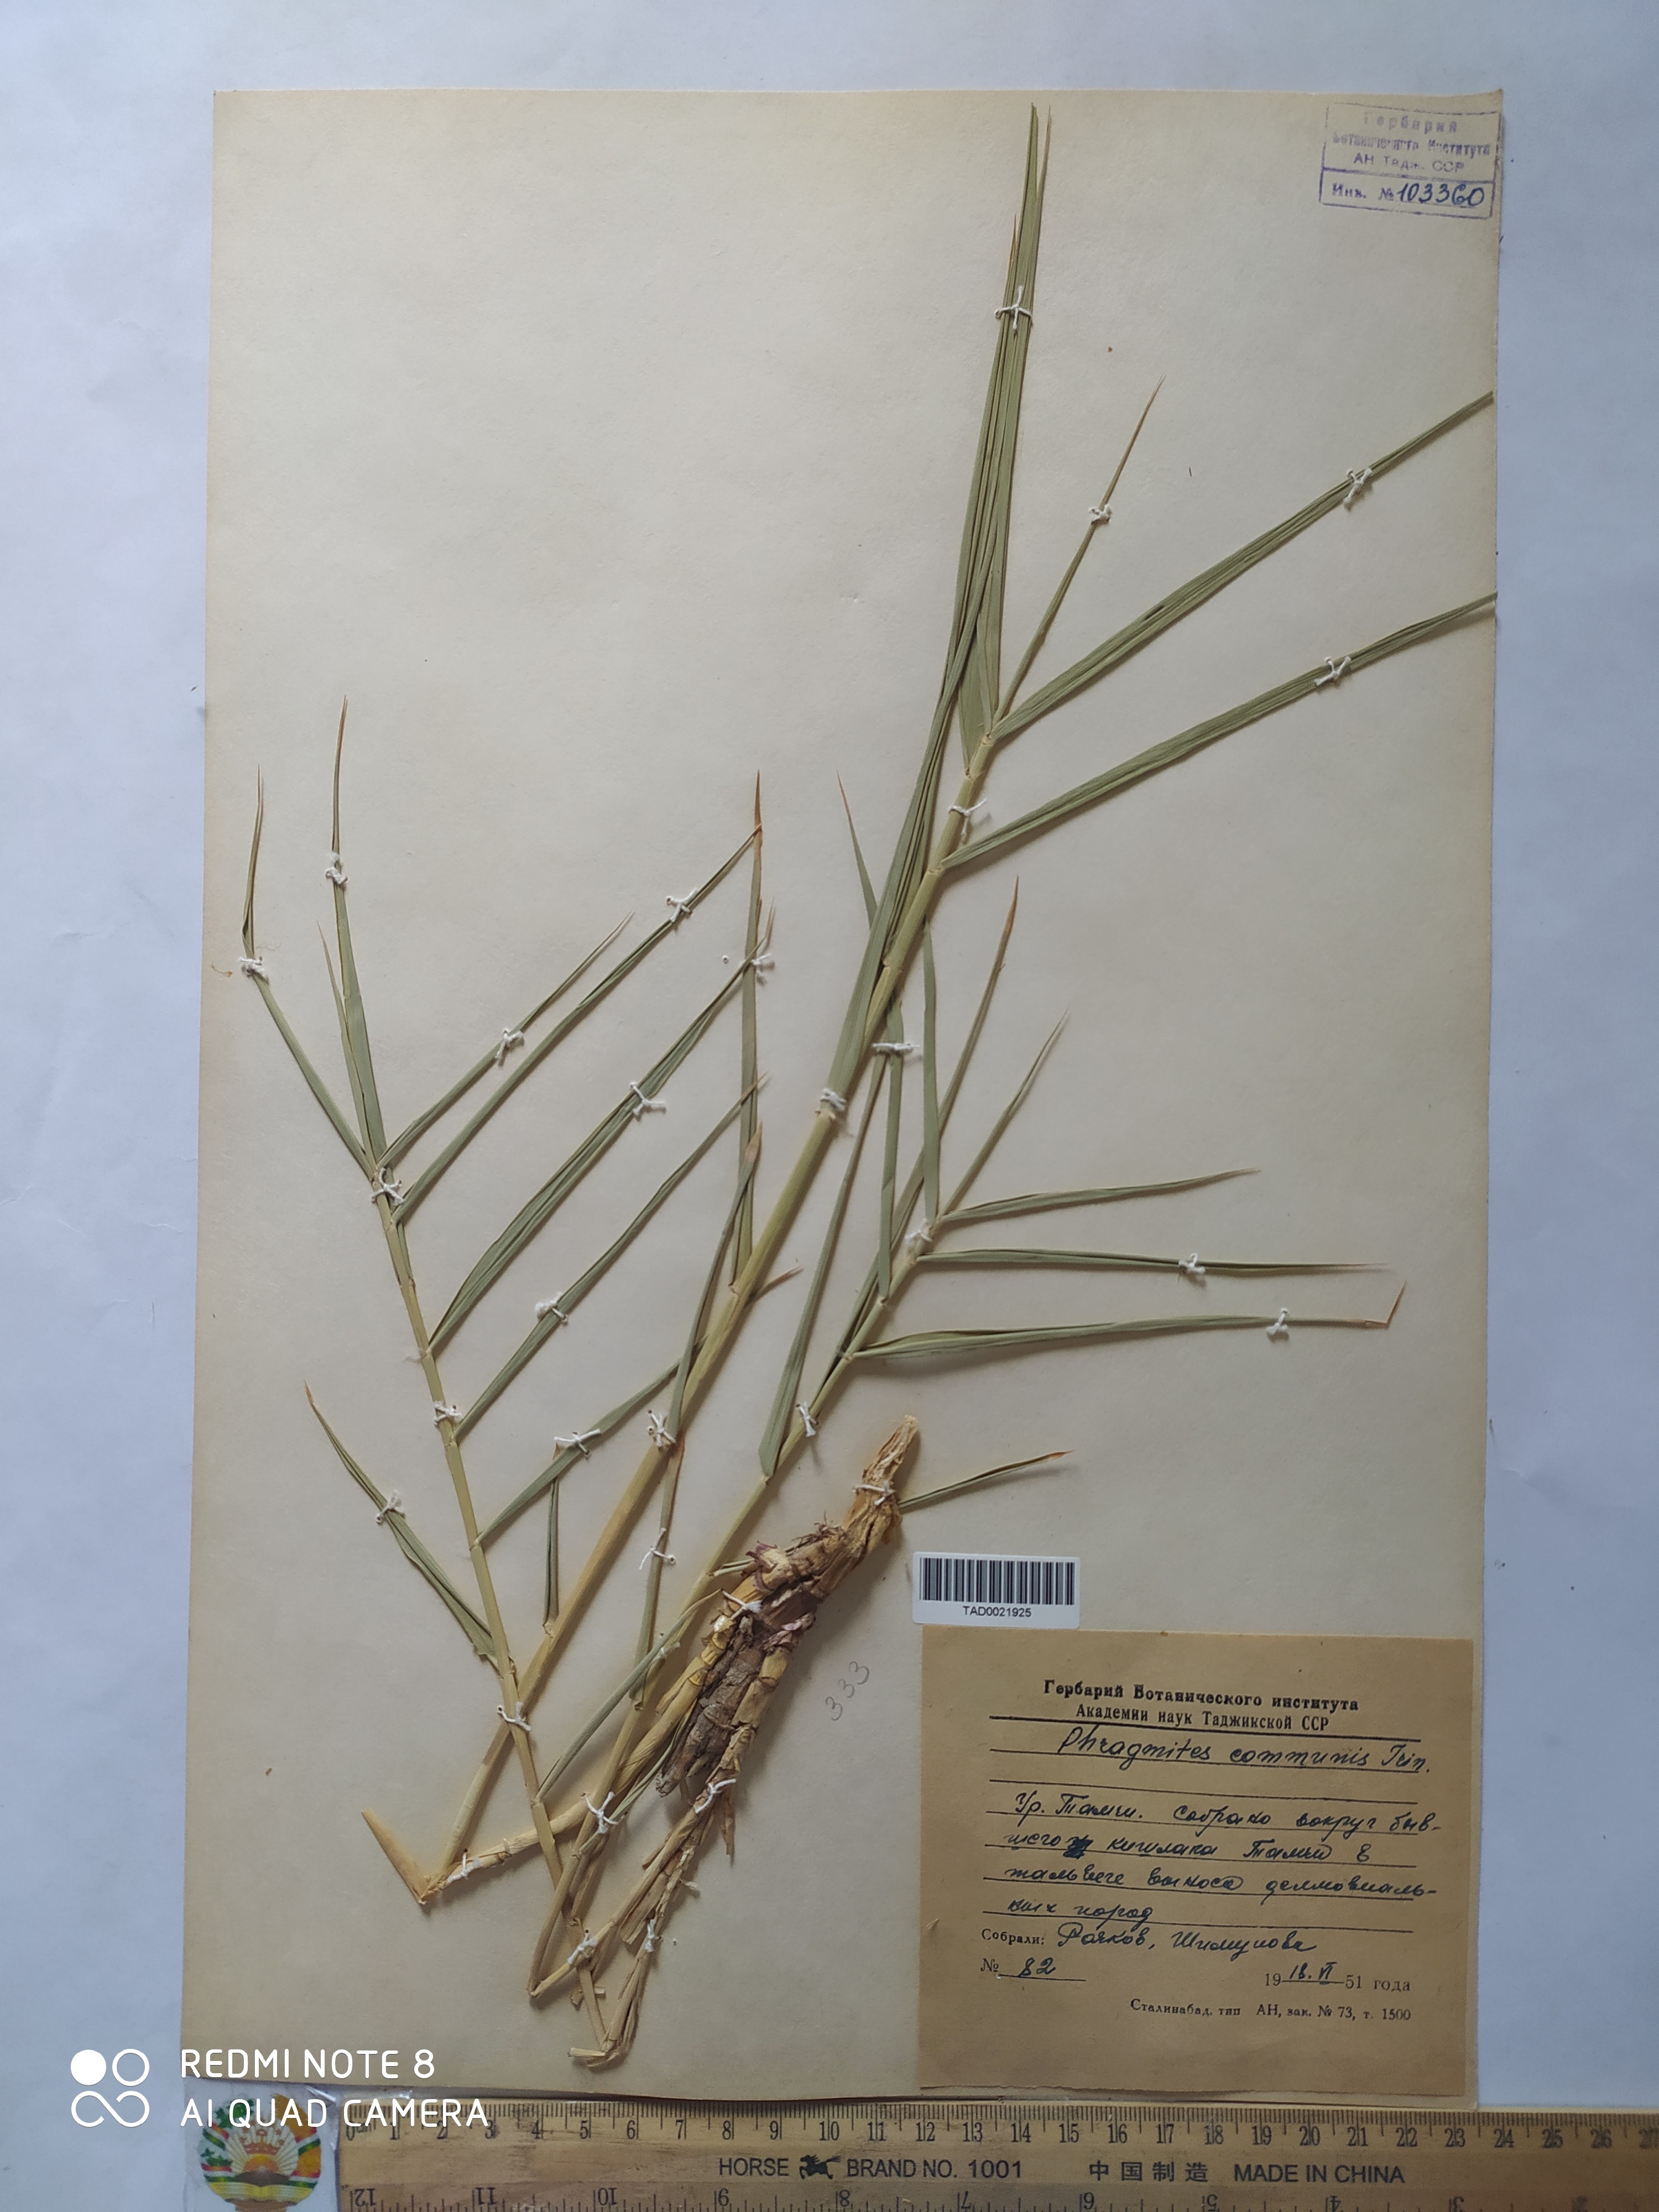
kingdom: Plantae
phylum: Tracheophyta
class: Liliopsida
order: Poales
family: Poaceae
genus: Phragmites
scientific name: Phragmites australis
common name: Common reed
